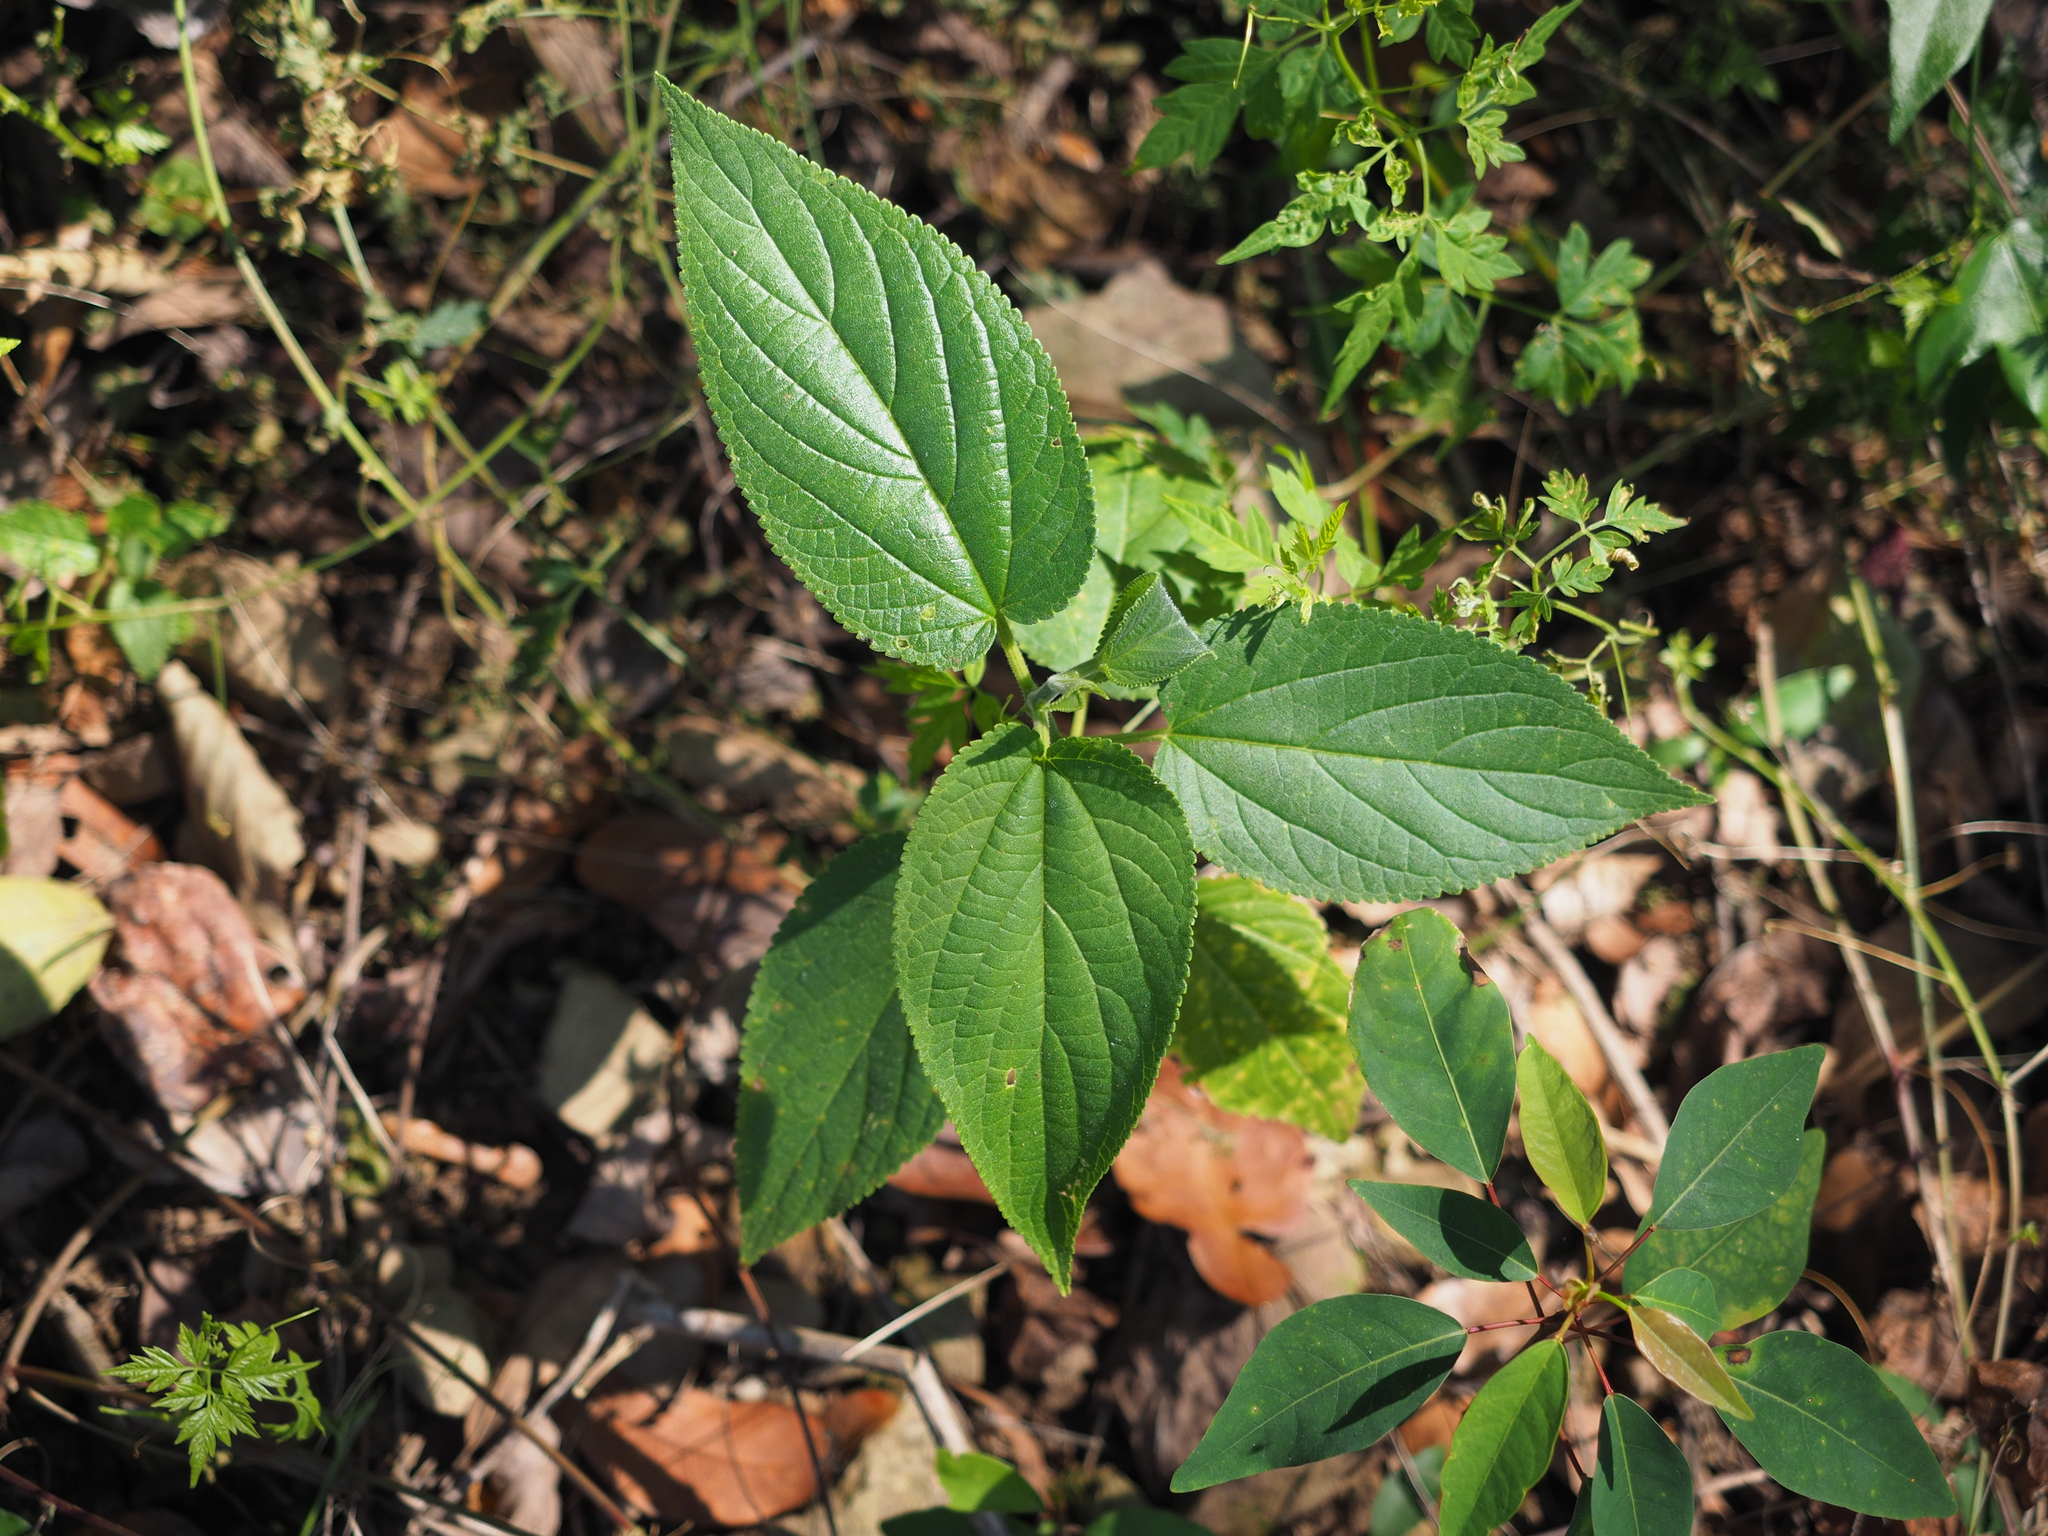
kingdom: Plantae
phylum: Tracheophyta
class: Magnoliopsida
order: Rosales
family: Cannabaceae
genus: Trema
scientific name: Trema orientale
